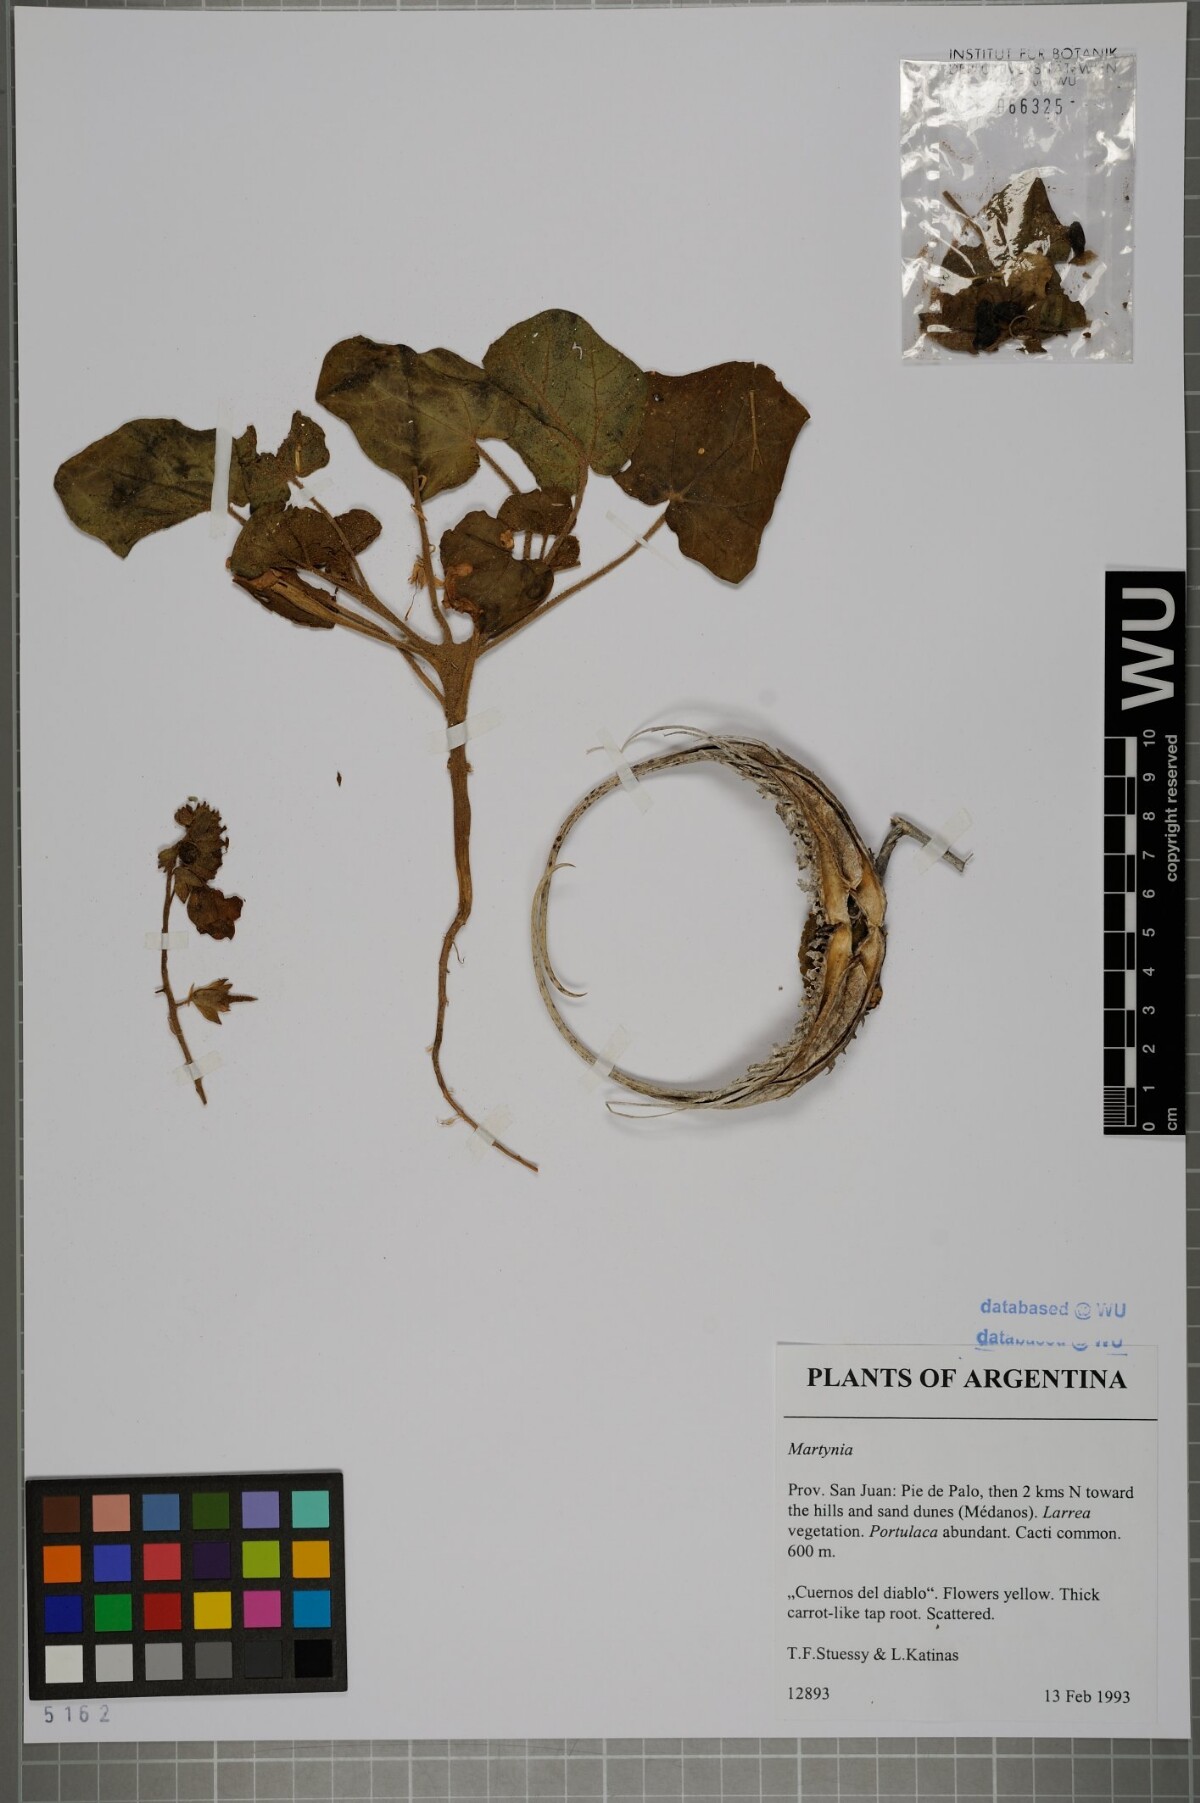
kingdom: Plantae
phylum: Tracheophyta
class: Magnoliopsida
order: Lamiales
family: Martyniaceae
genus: Martynia
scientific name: Martynia
